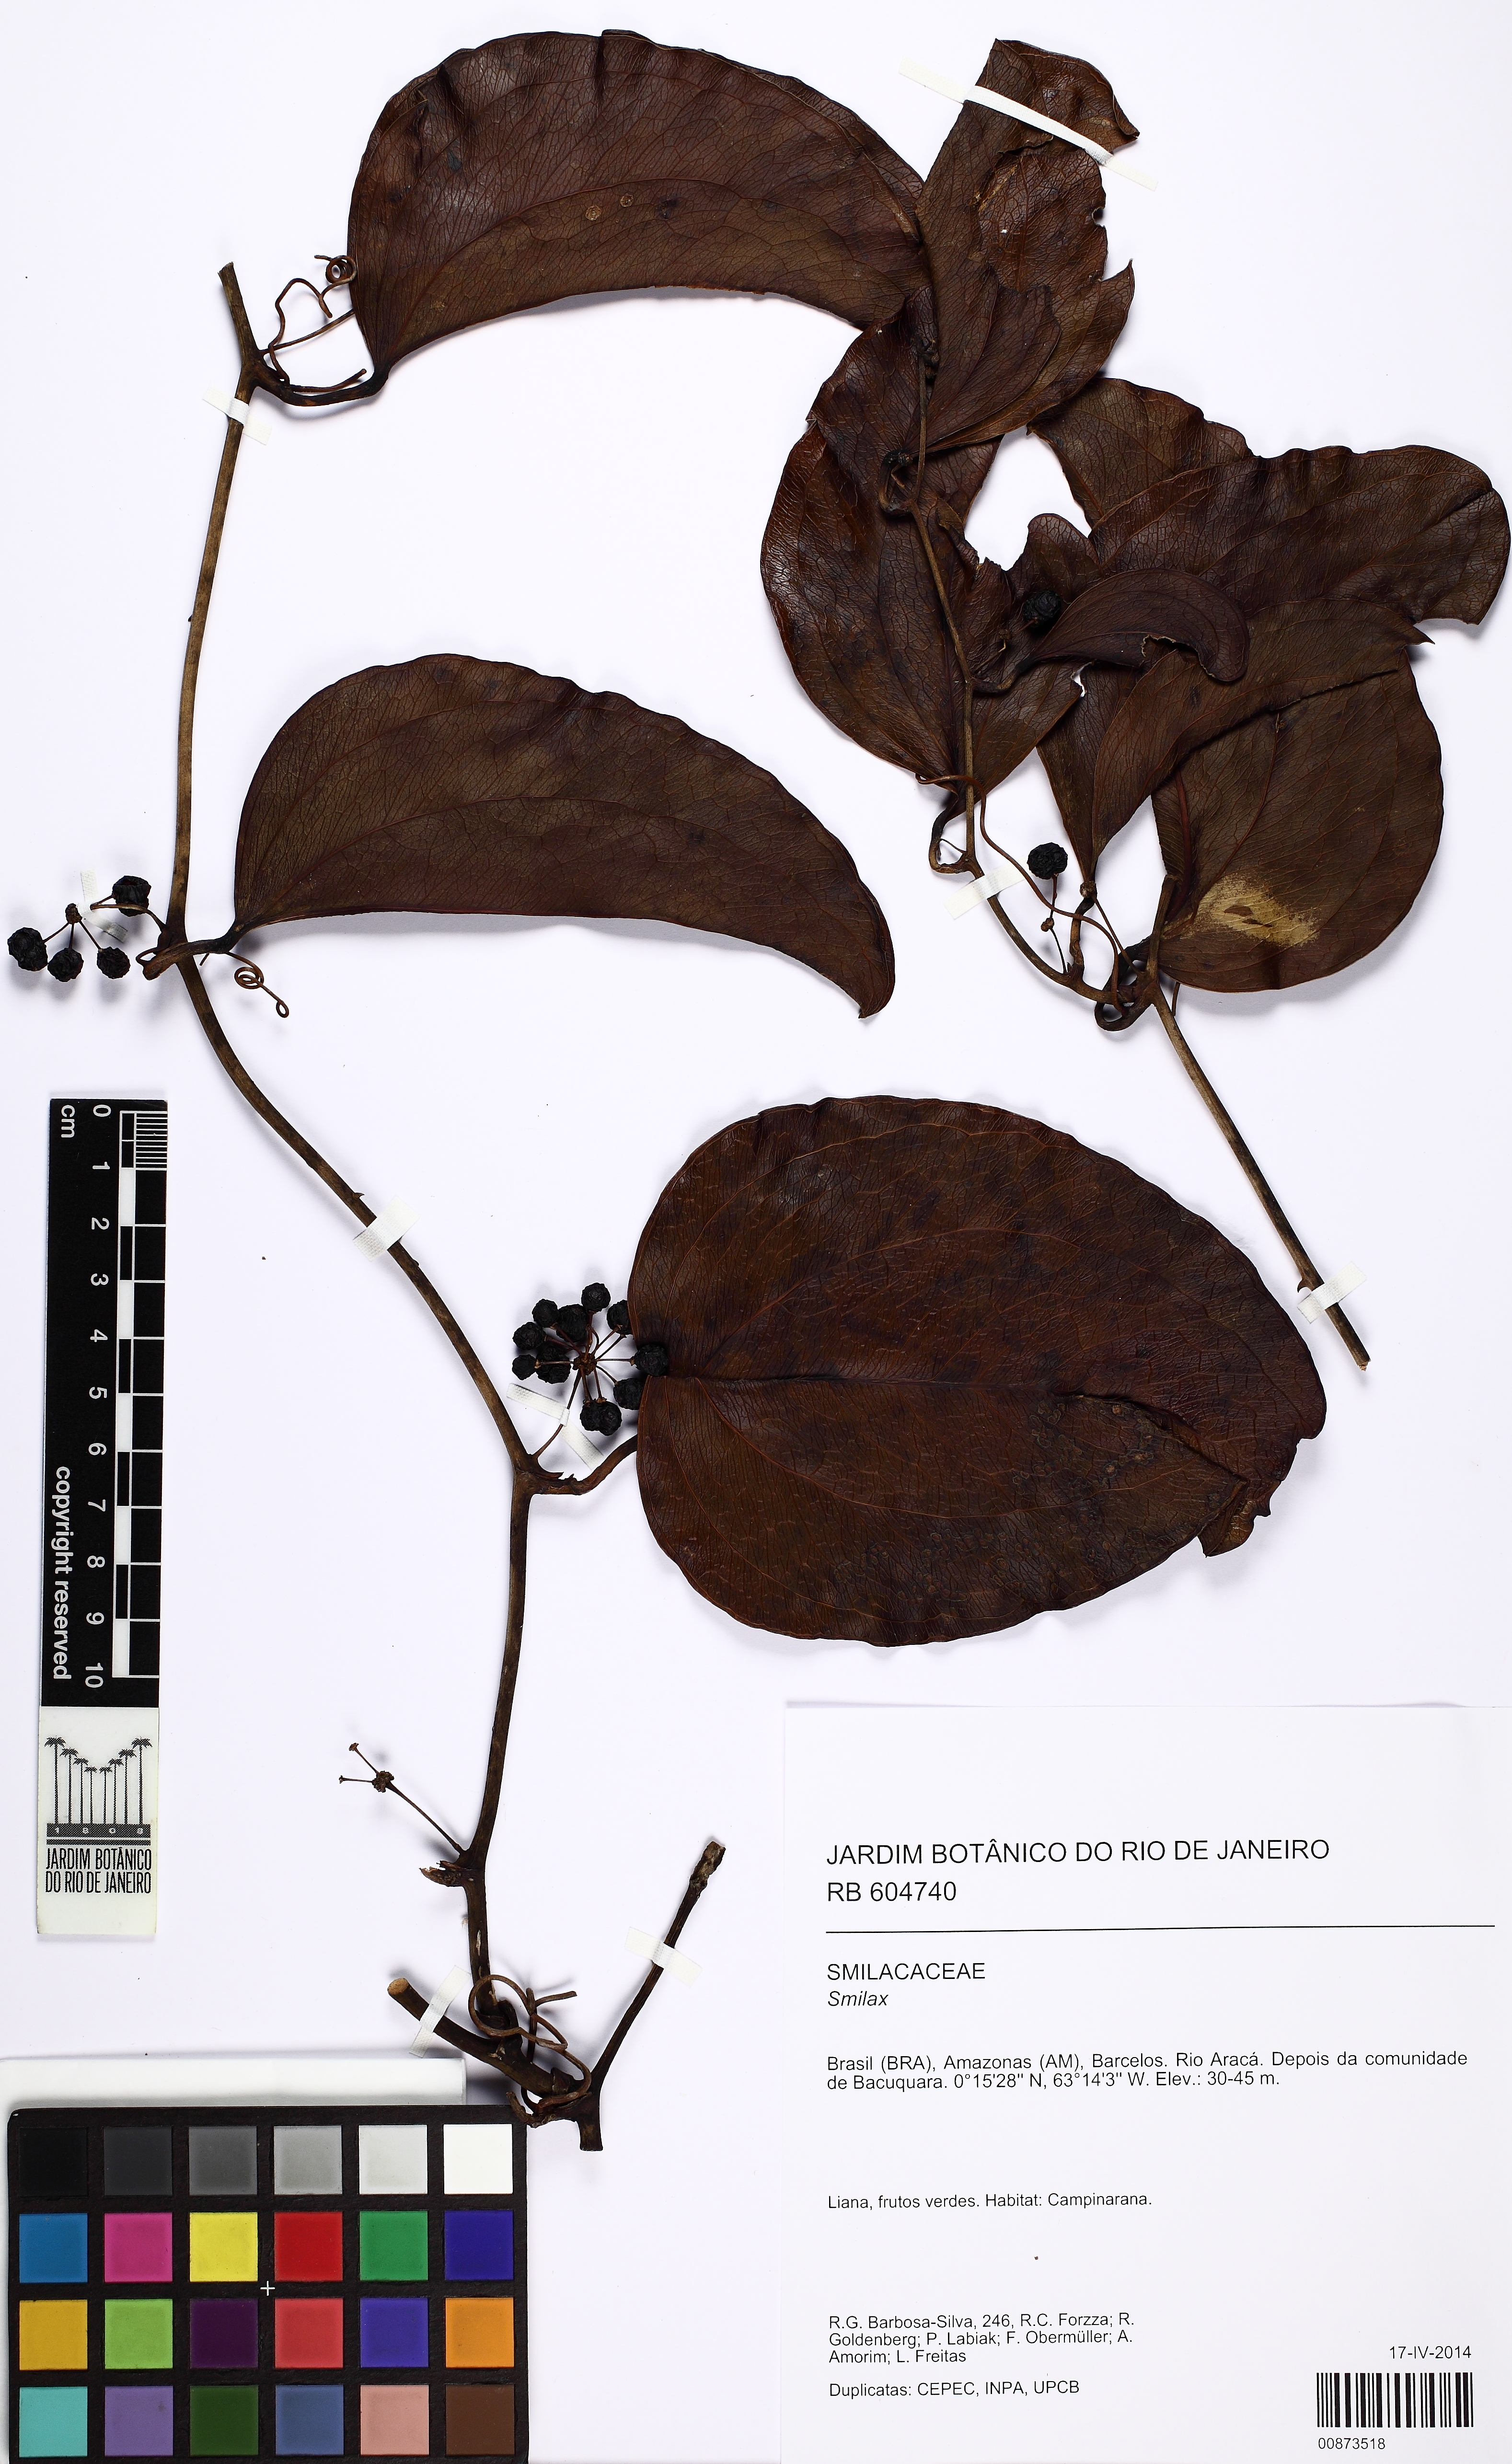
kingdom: Plantae
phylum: Tracheophyta
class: Liliopsida
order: Liliales
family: Smilacaceae
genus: Smilax
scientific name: Smilax
